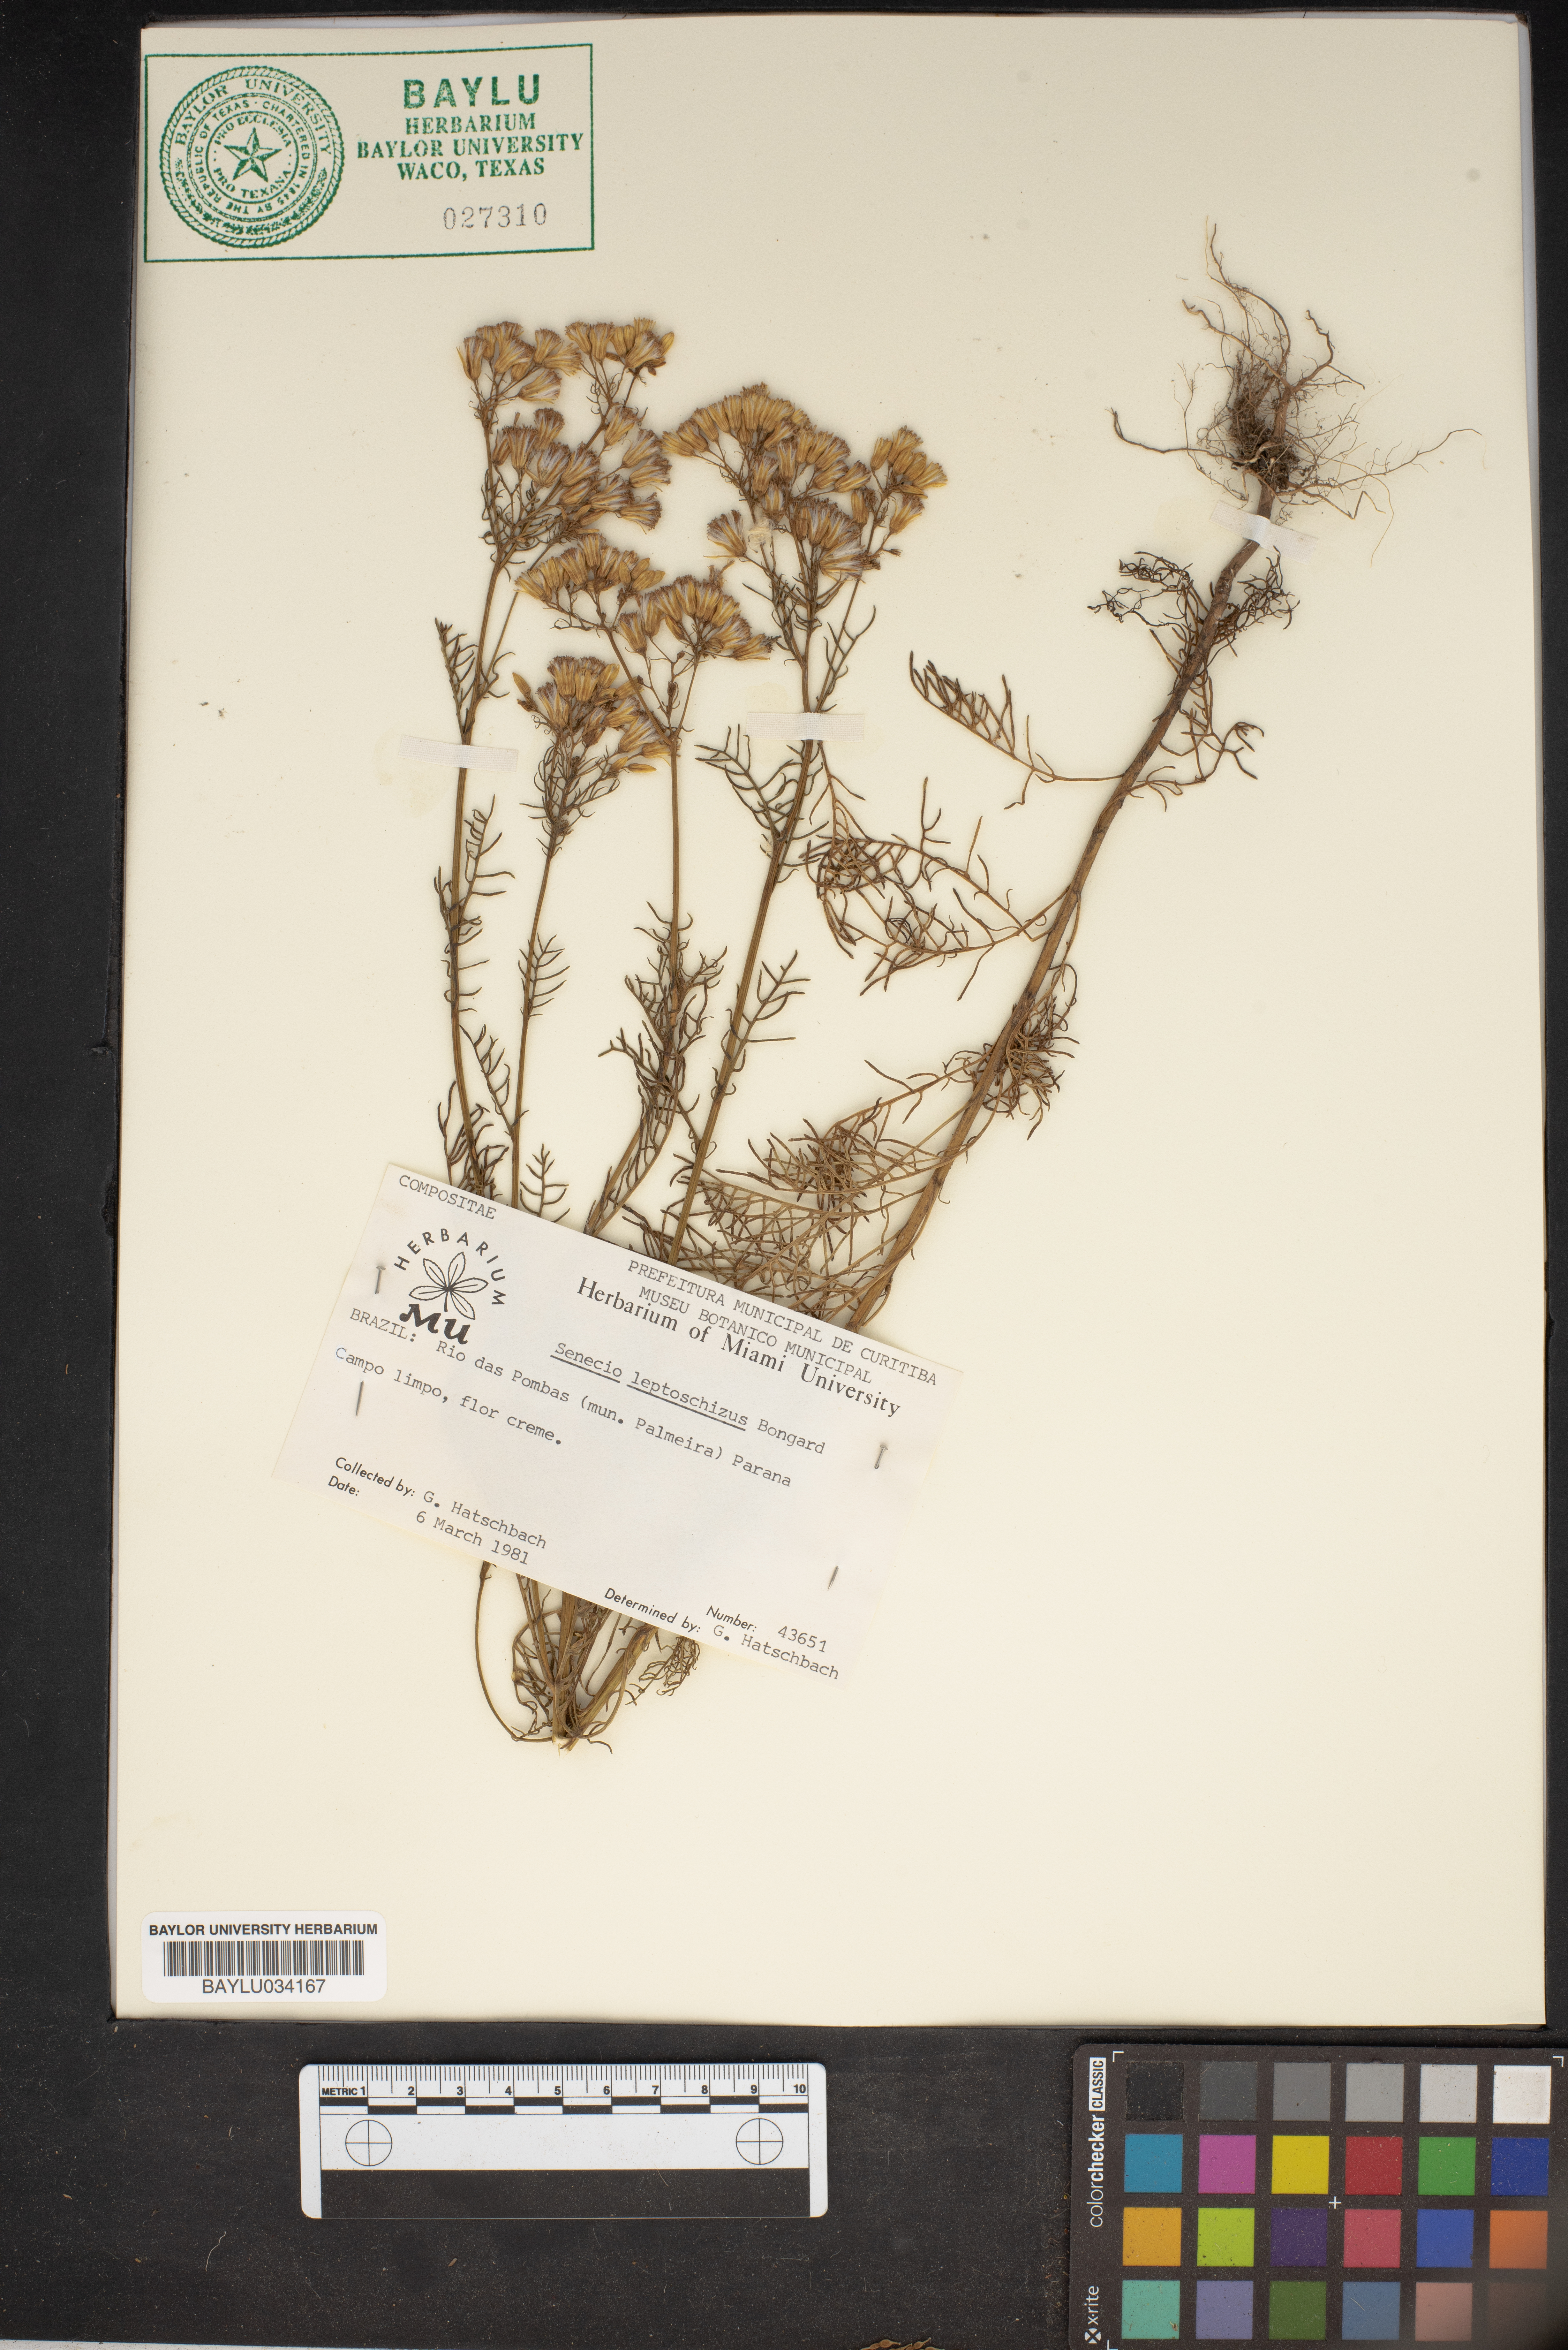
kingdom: Plantae
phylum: Tracheophyta
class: Magnoliopsida
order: Asterales
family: Asteraceae
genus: Senecio
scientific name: Senecio leptoschizus
